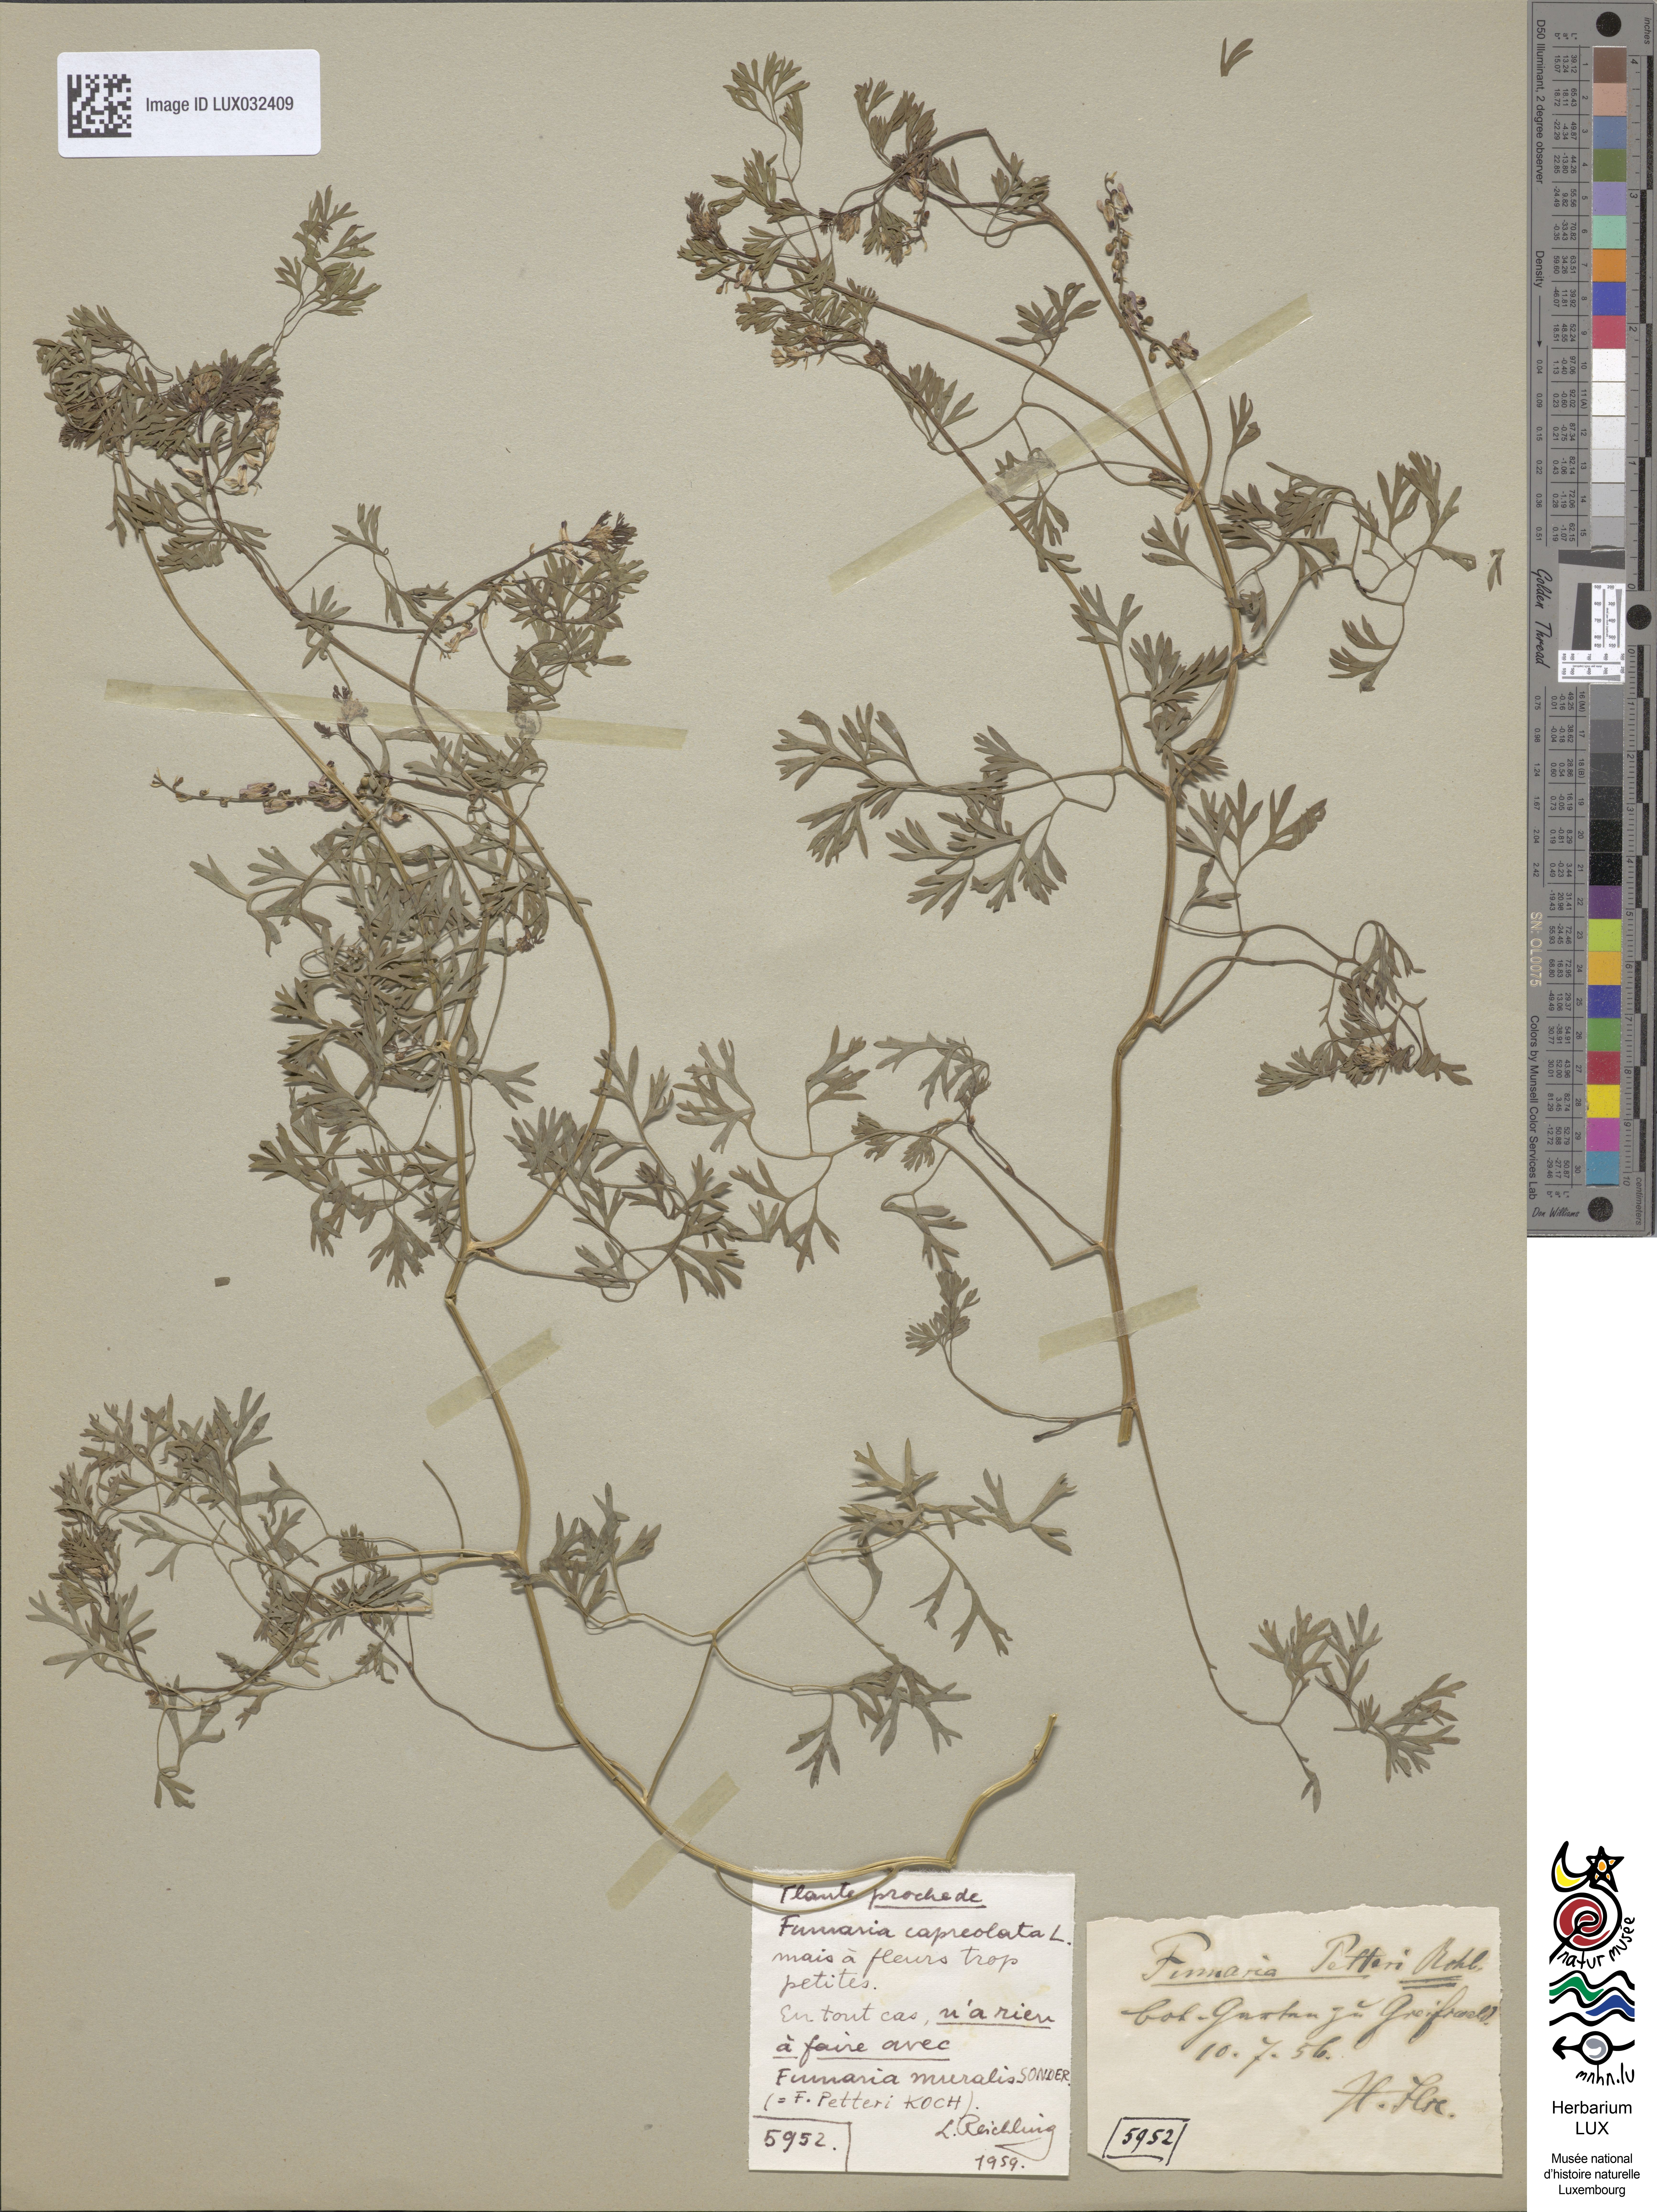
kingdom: Plantae
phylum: Tracheophyta
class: Magnoliopsida
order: Ranunculales
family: Papaveraceae
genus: Fumaria
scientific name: Fumaria
